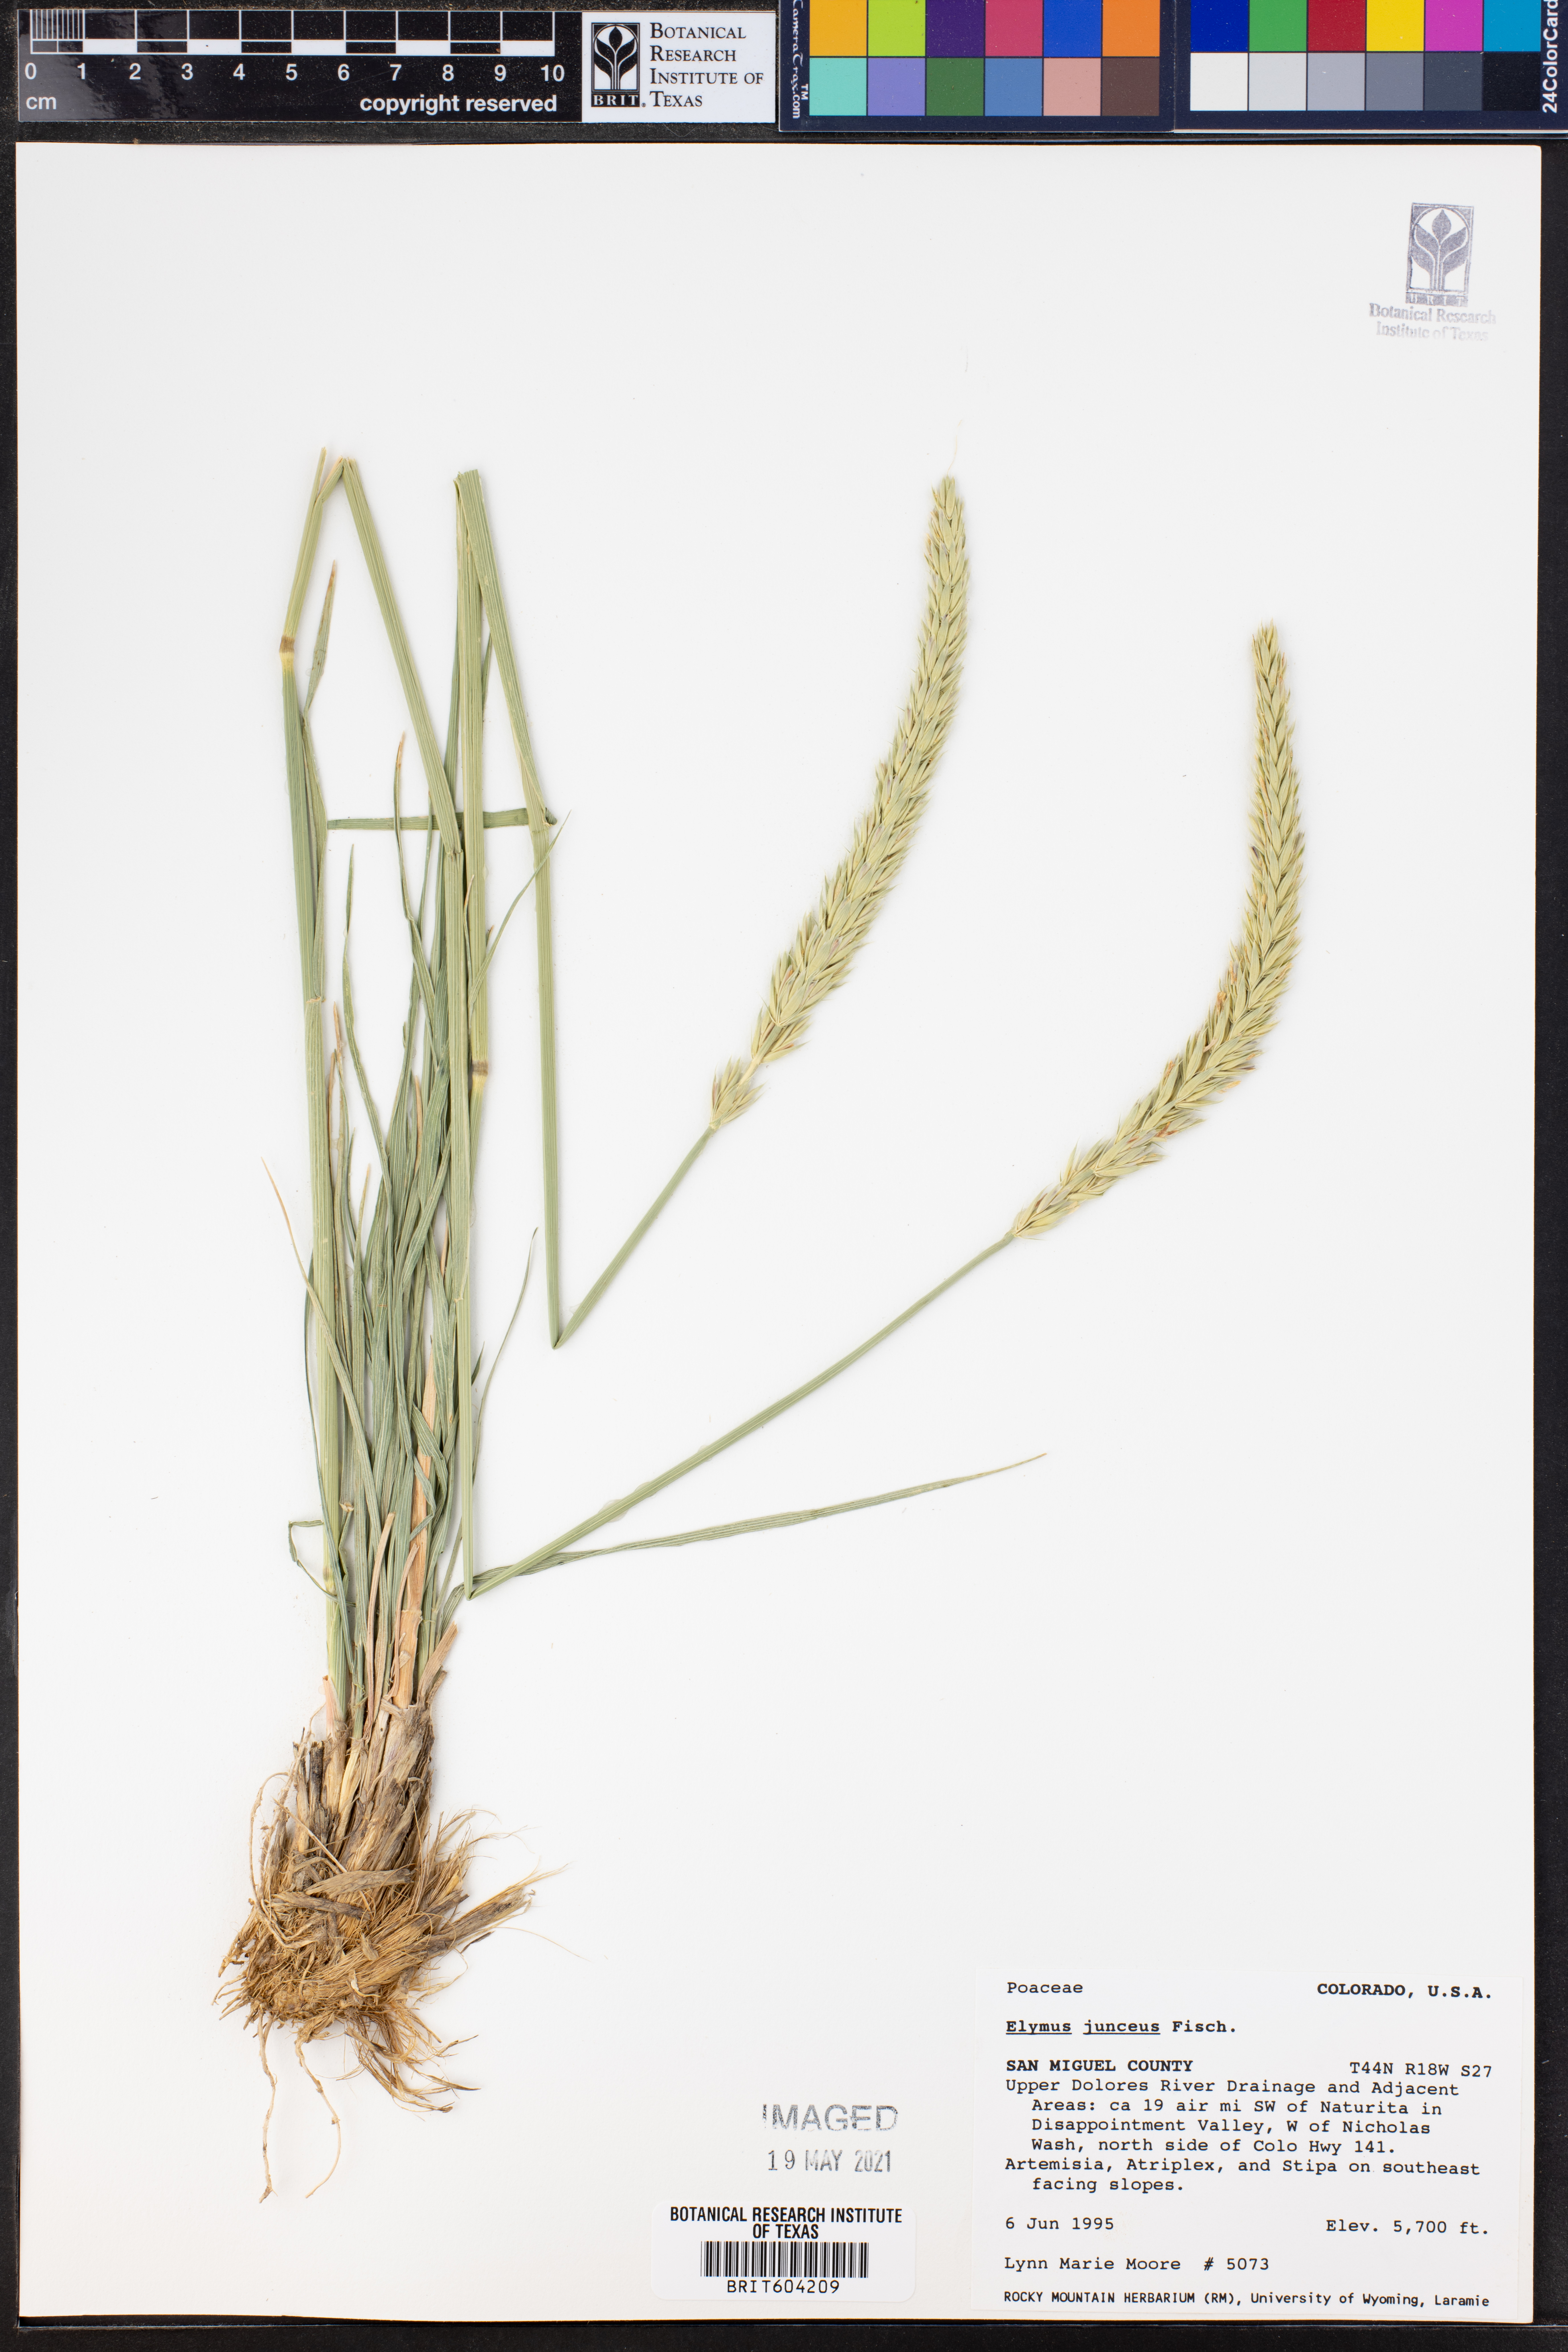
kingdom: Plantae
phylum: Tracheophyta
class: Liliopsida
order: Poales
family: Poaceae
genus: Psathyrostachys
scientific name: Psathyrostachys juncea
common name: Russian wildrye
